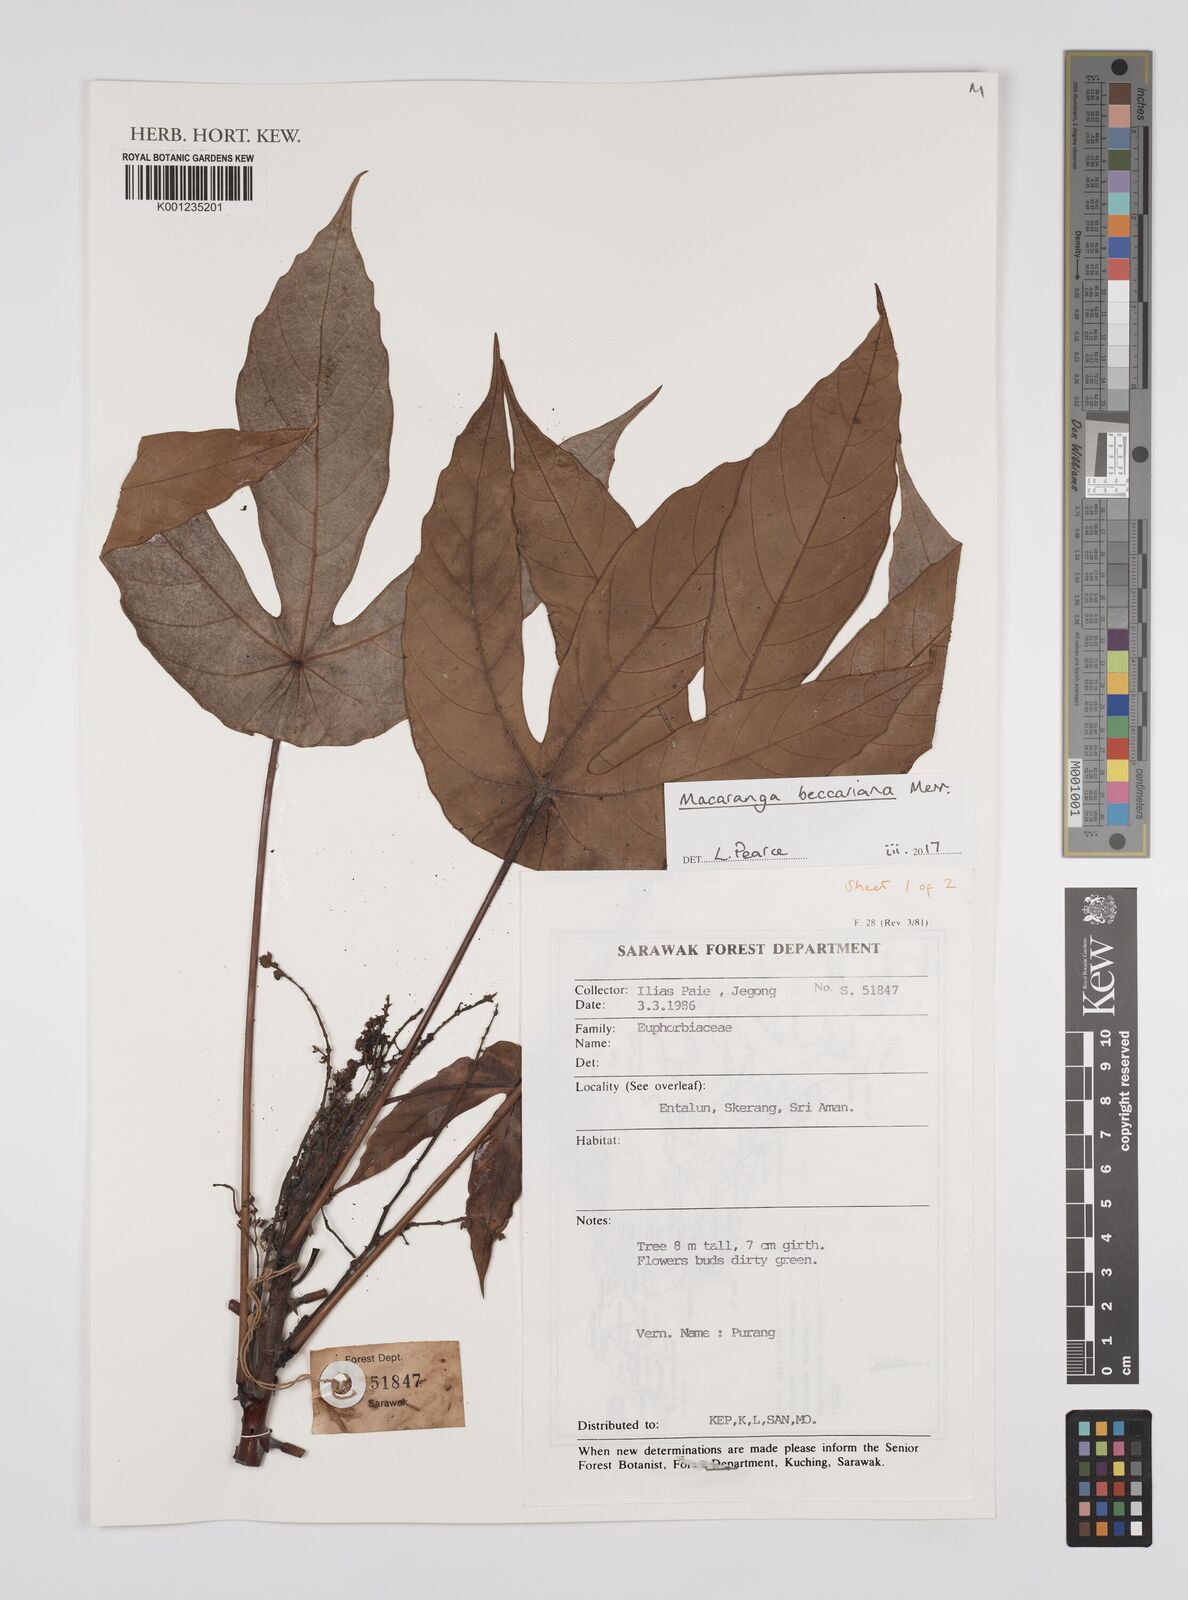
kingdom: Plantae
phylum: Tracheophyta
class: Magnoliopsida
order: Malpighiales
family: Euphorbiaceae
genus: Macaranga
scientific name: Macaranga beccariana
